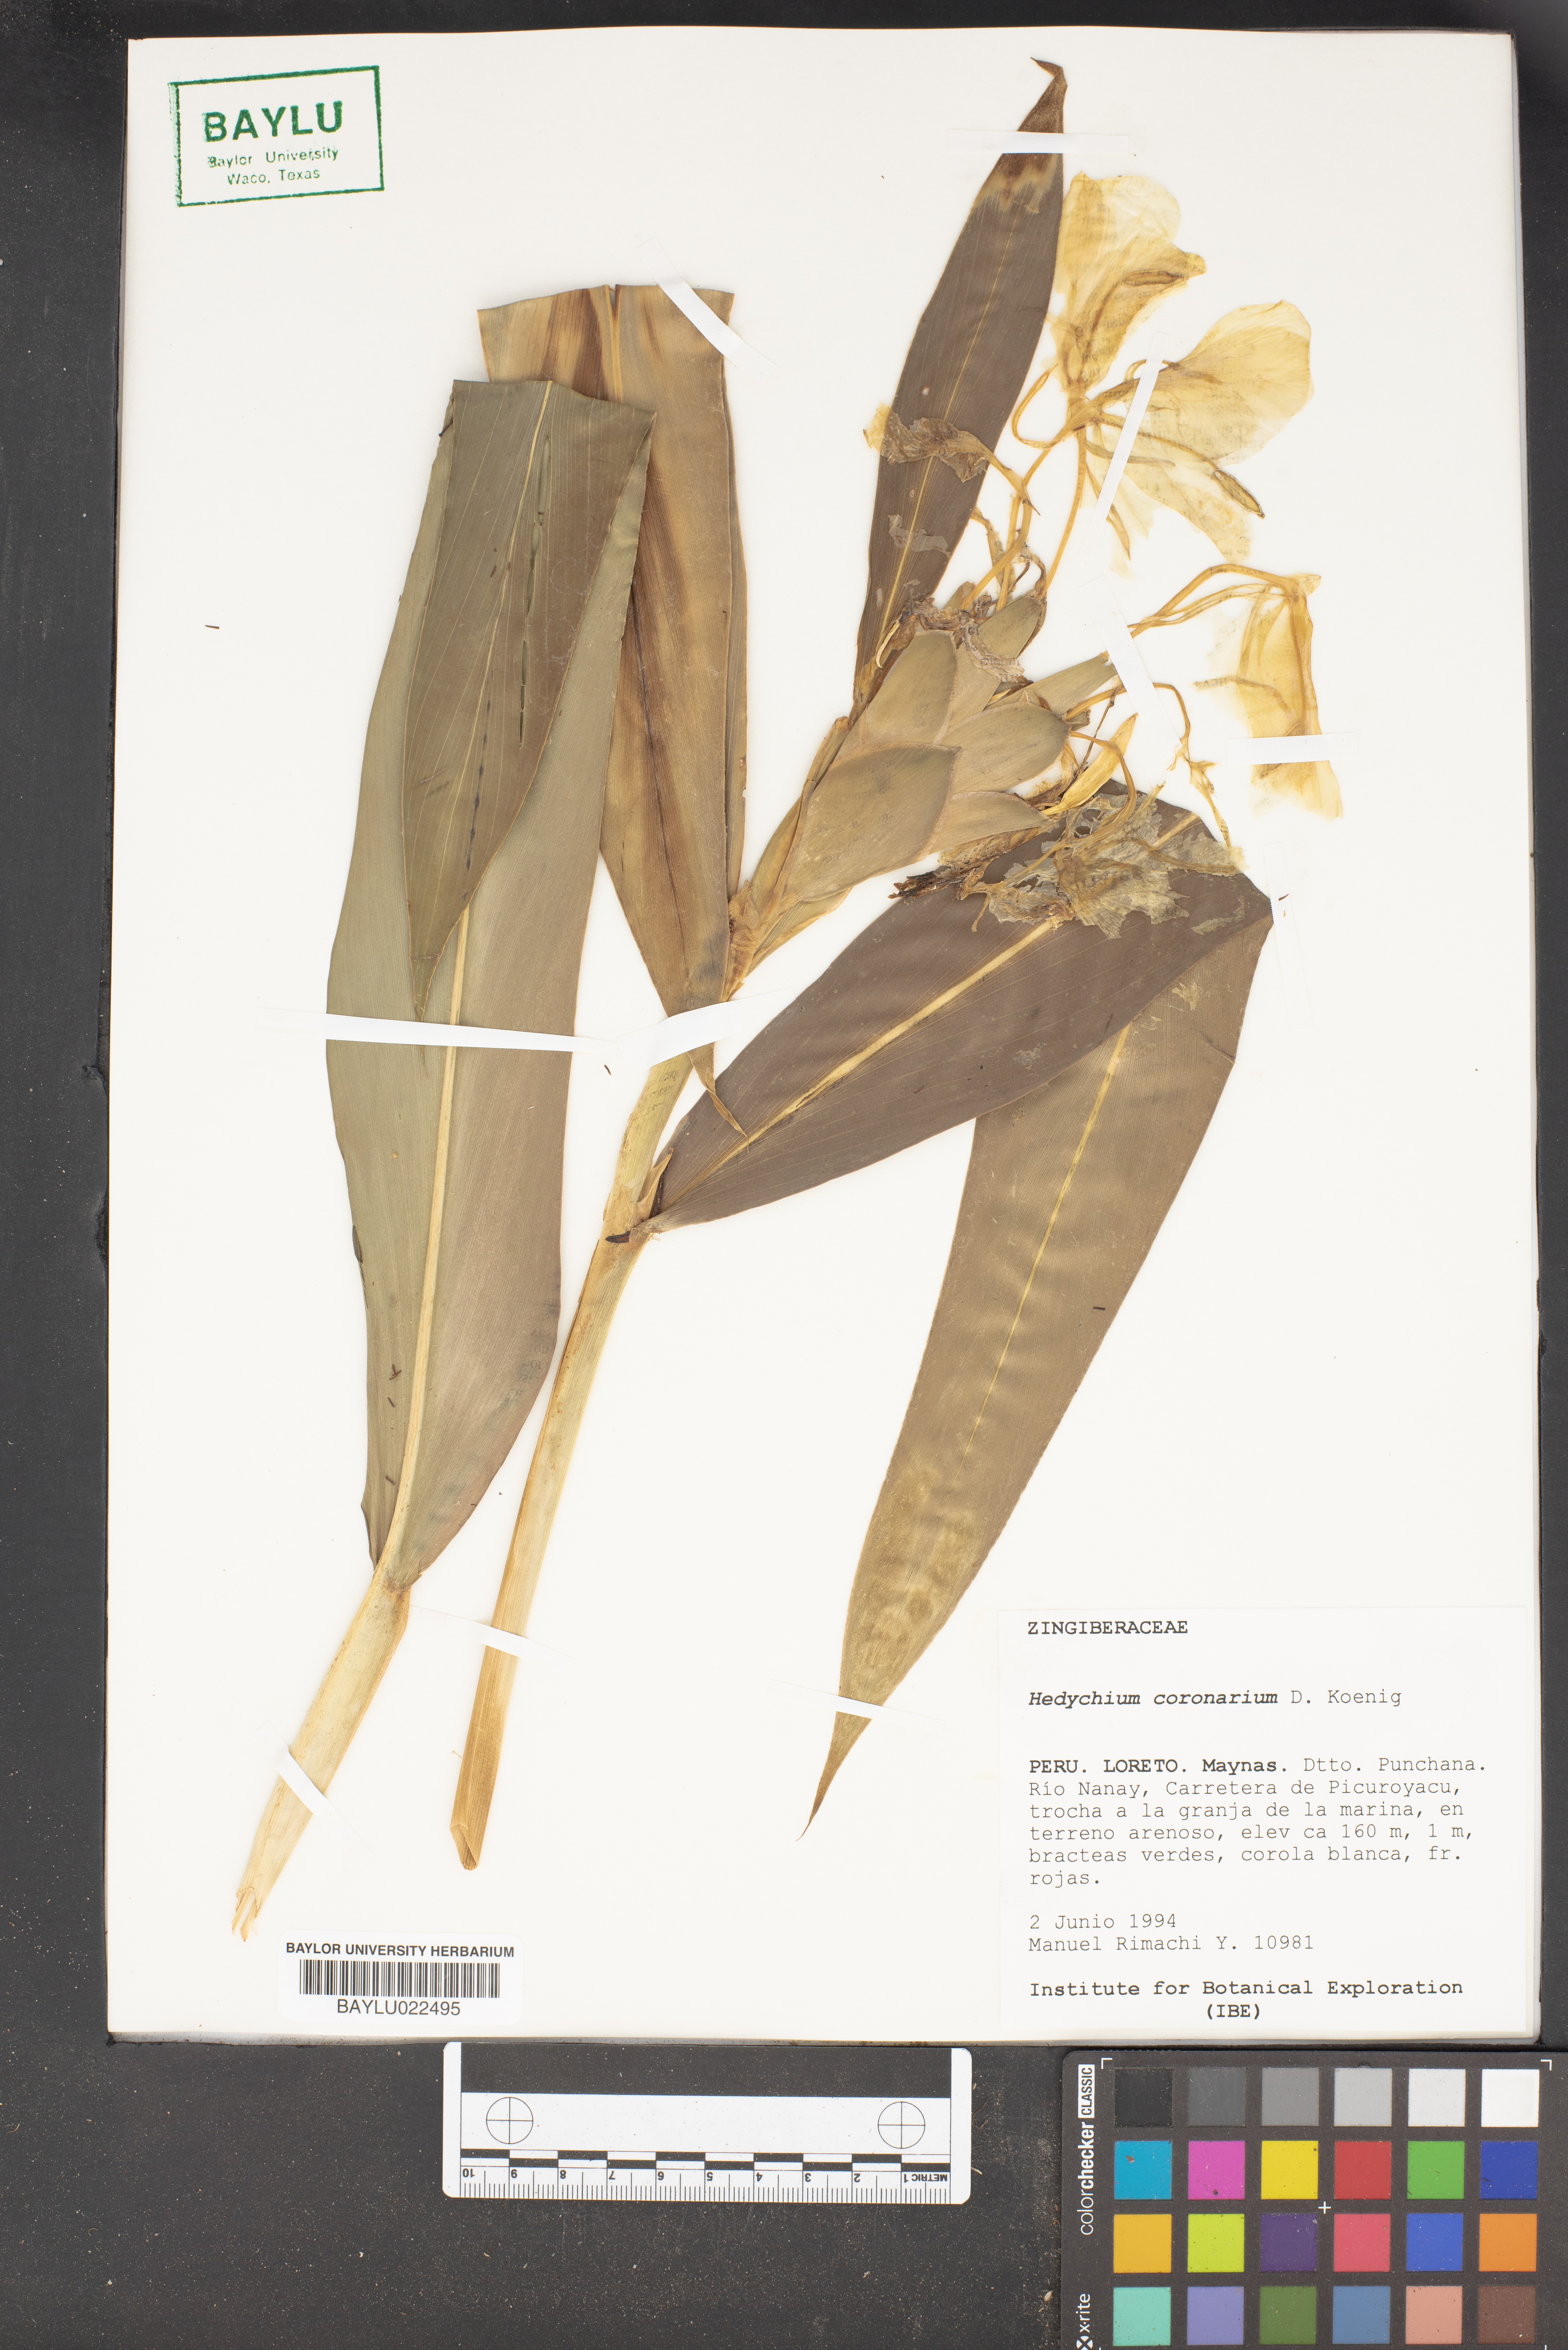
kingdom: Plantae
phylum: Tracheophyta
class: Liliopsida
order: Zingiberales
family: Zingiberaceae
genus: Hedychium
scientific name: Hedychium coronarium
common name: White garland-lily
